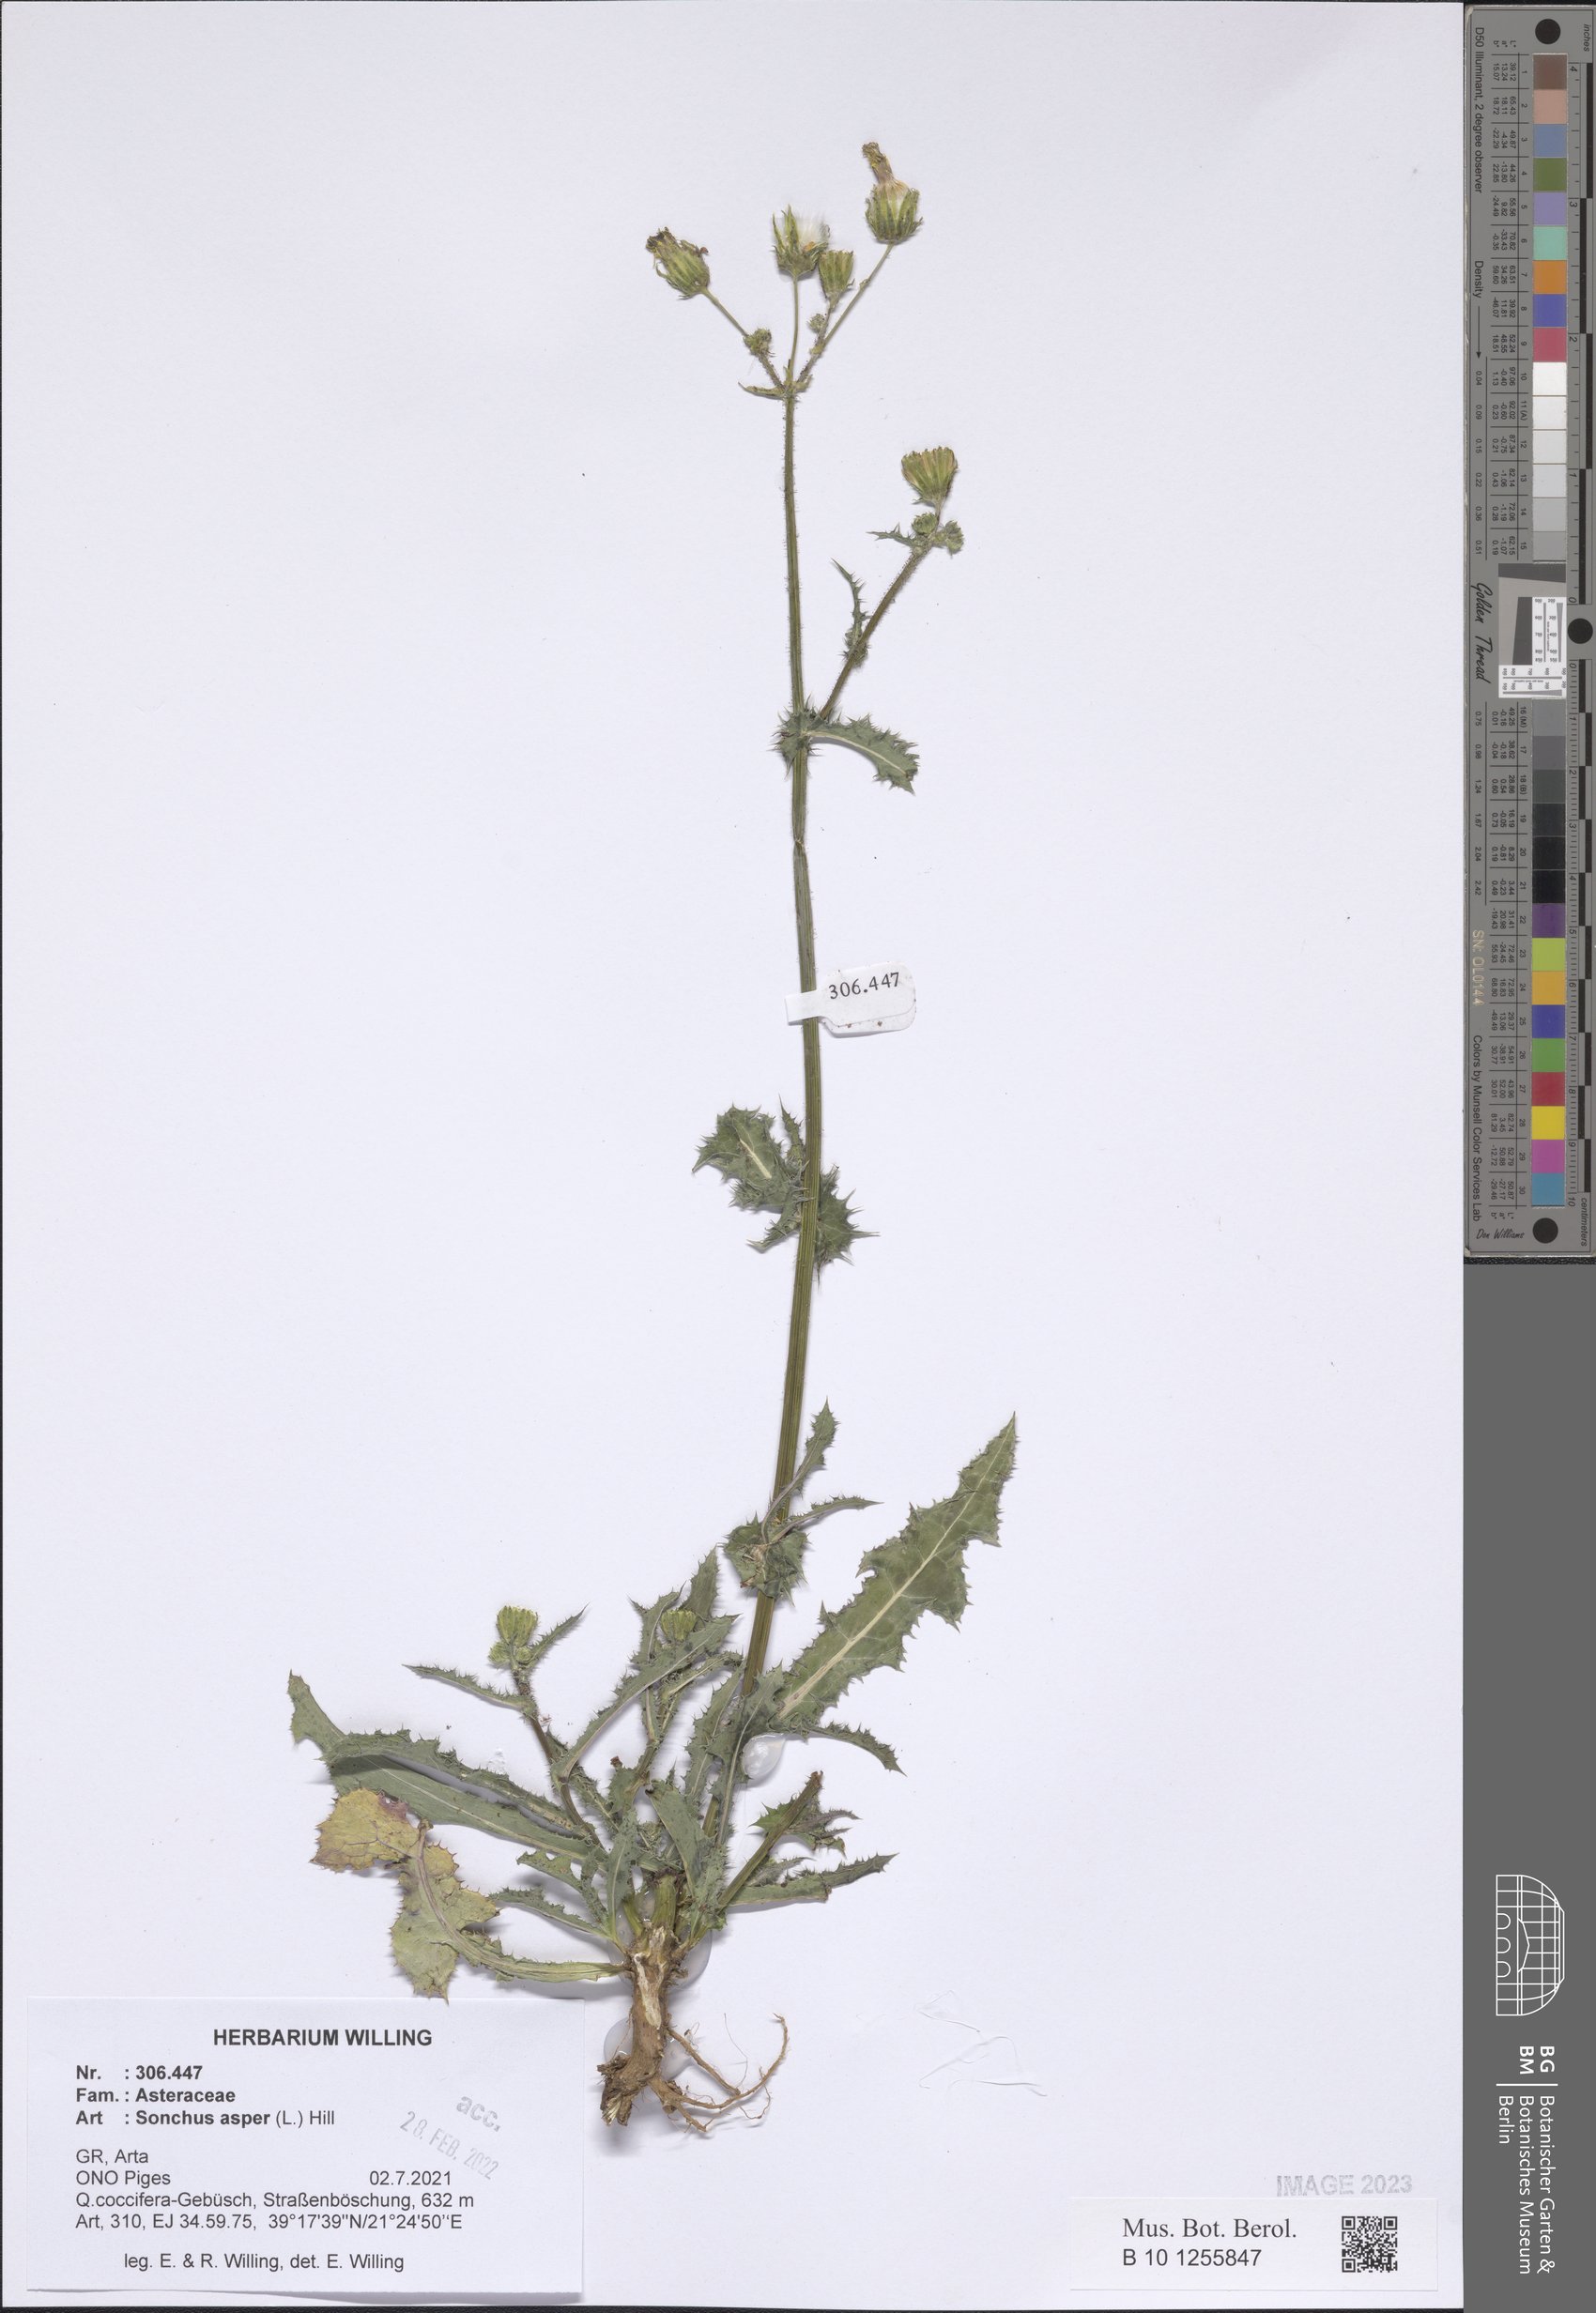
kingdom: Plantae
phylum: Tracheophyta
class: Magnoliopsida
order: Asterales
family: Asteraceae
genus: Sonchus
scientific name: Sonchus asper
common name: Prickly sow-thistle
